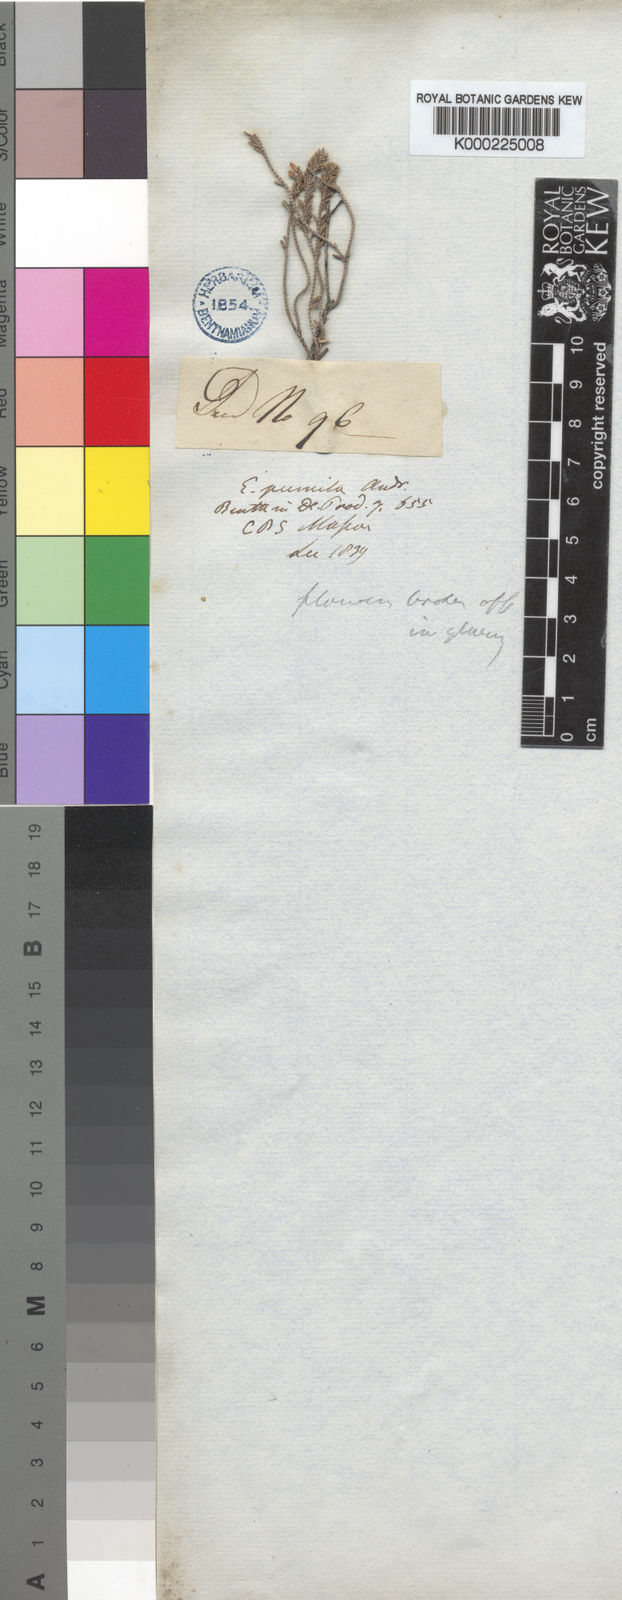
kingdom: Plantae
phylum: Tracheophyta
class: Magnoliopsida
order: Ericales
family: Ericaceae
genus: Erica
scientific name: Erica pumila
